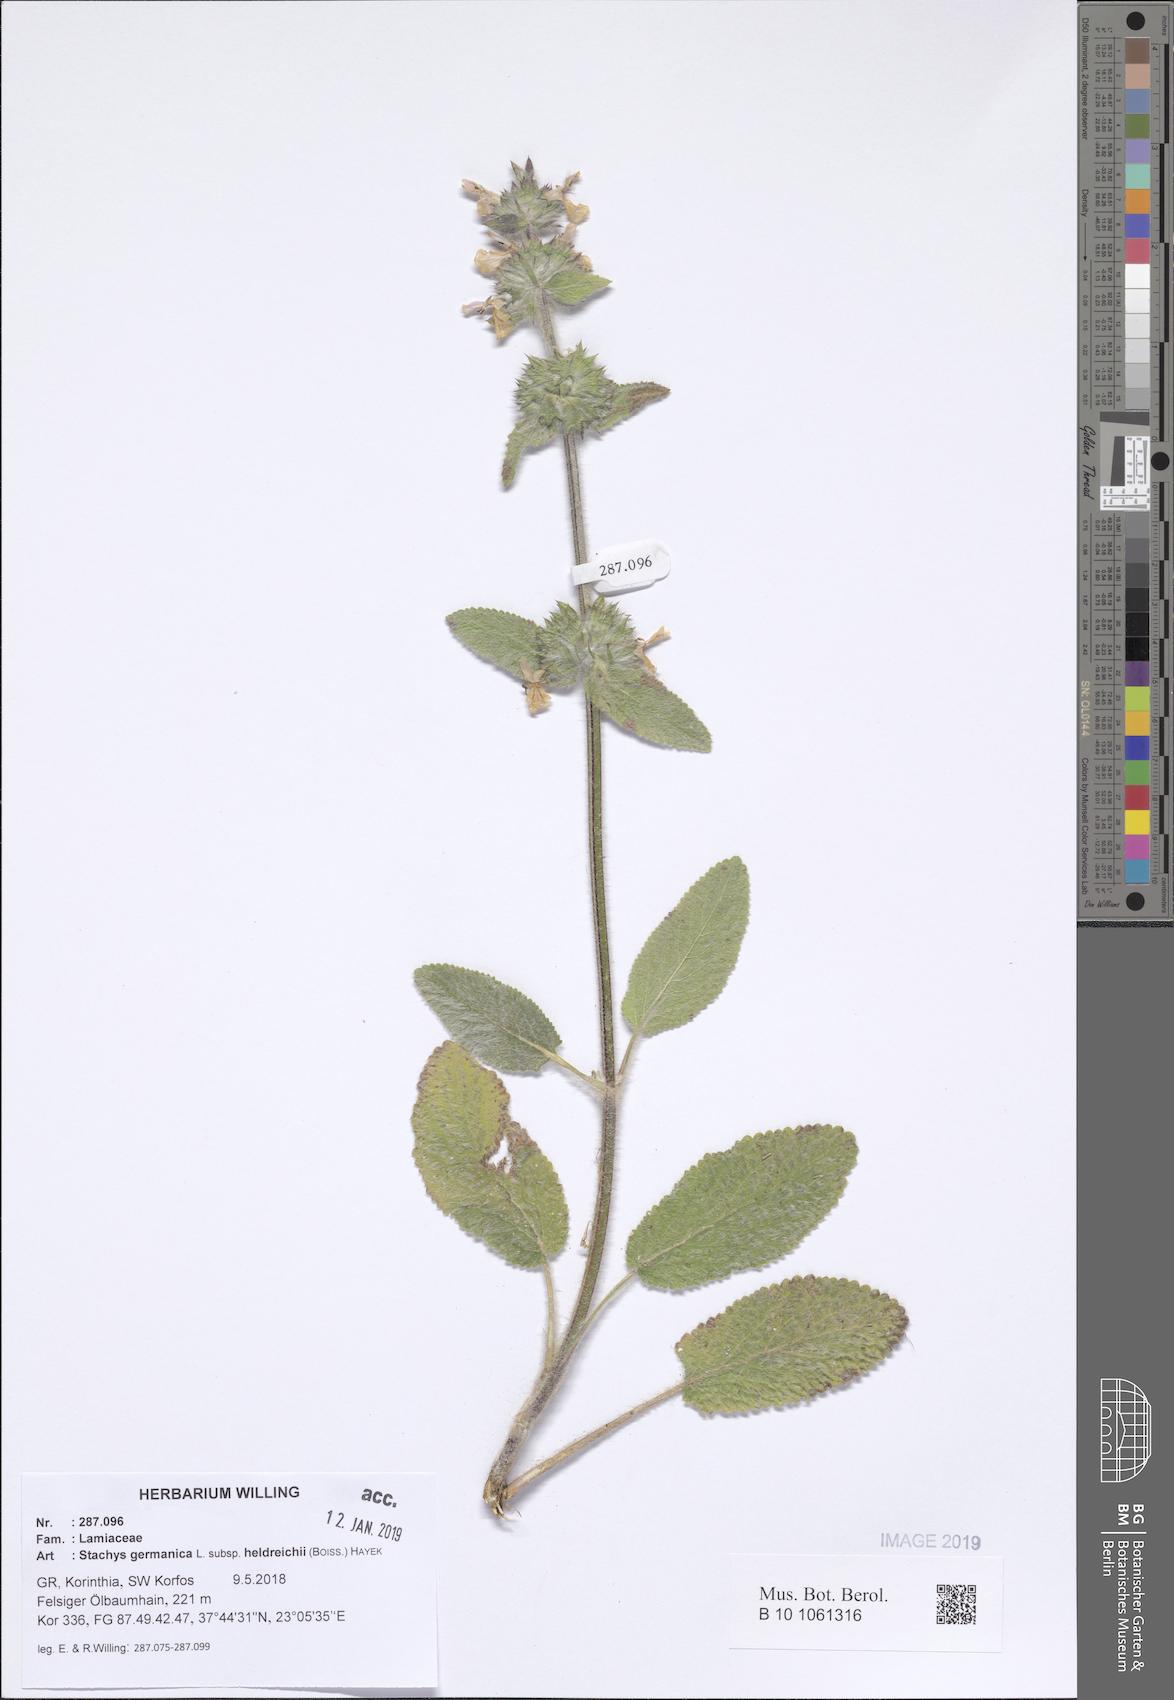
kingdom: Plantae
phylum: Tracheophyta
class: Magnoliopsida
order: Lamiales
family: Lamiaceae
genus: Stachys
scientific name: Stachys germanica
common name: Downy woundwort
